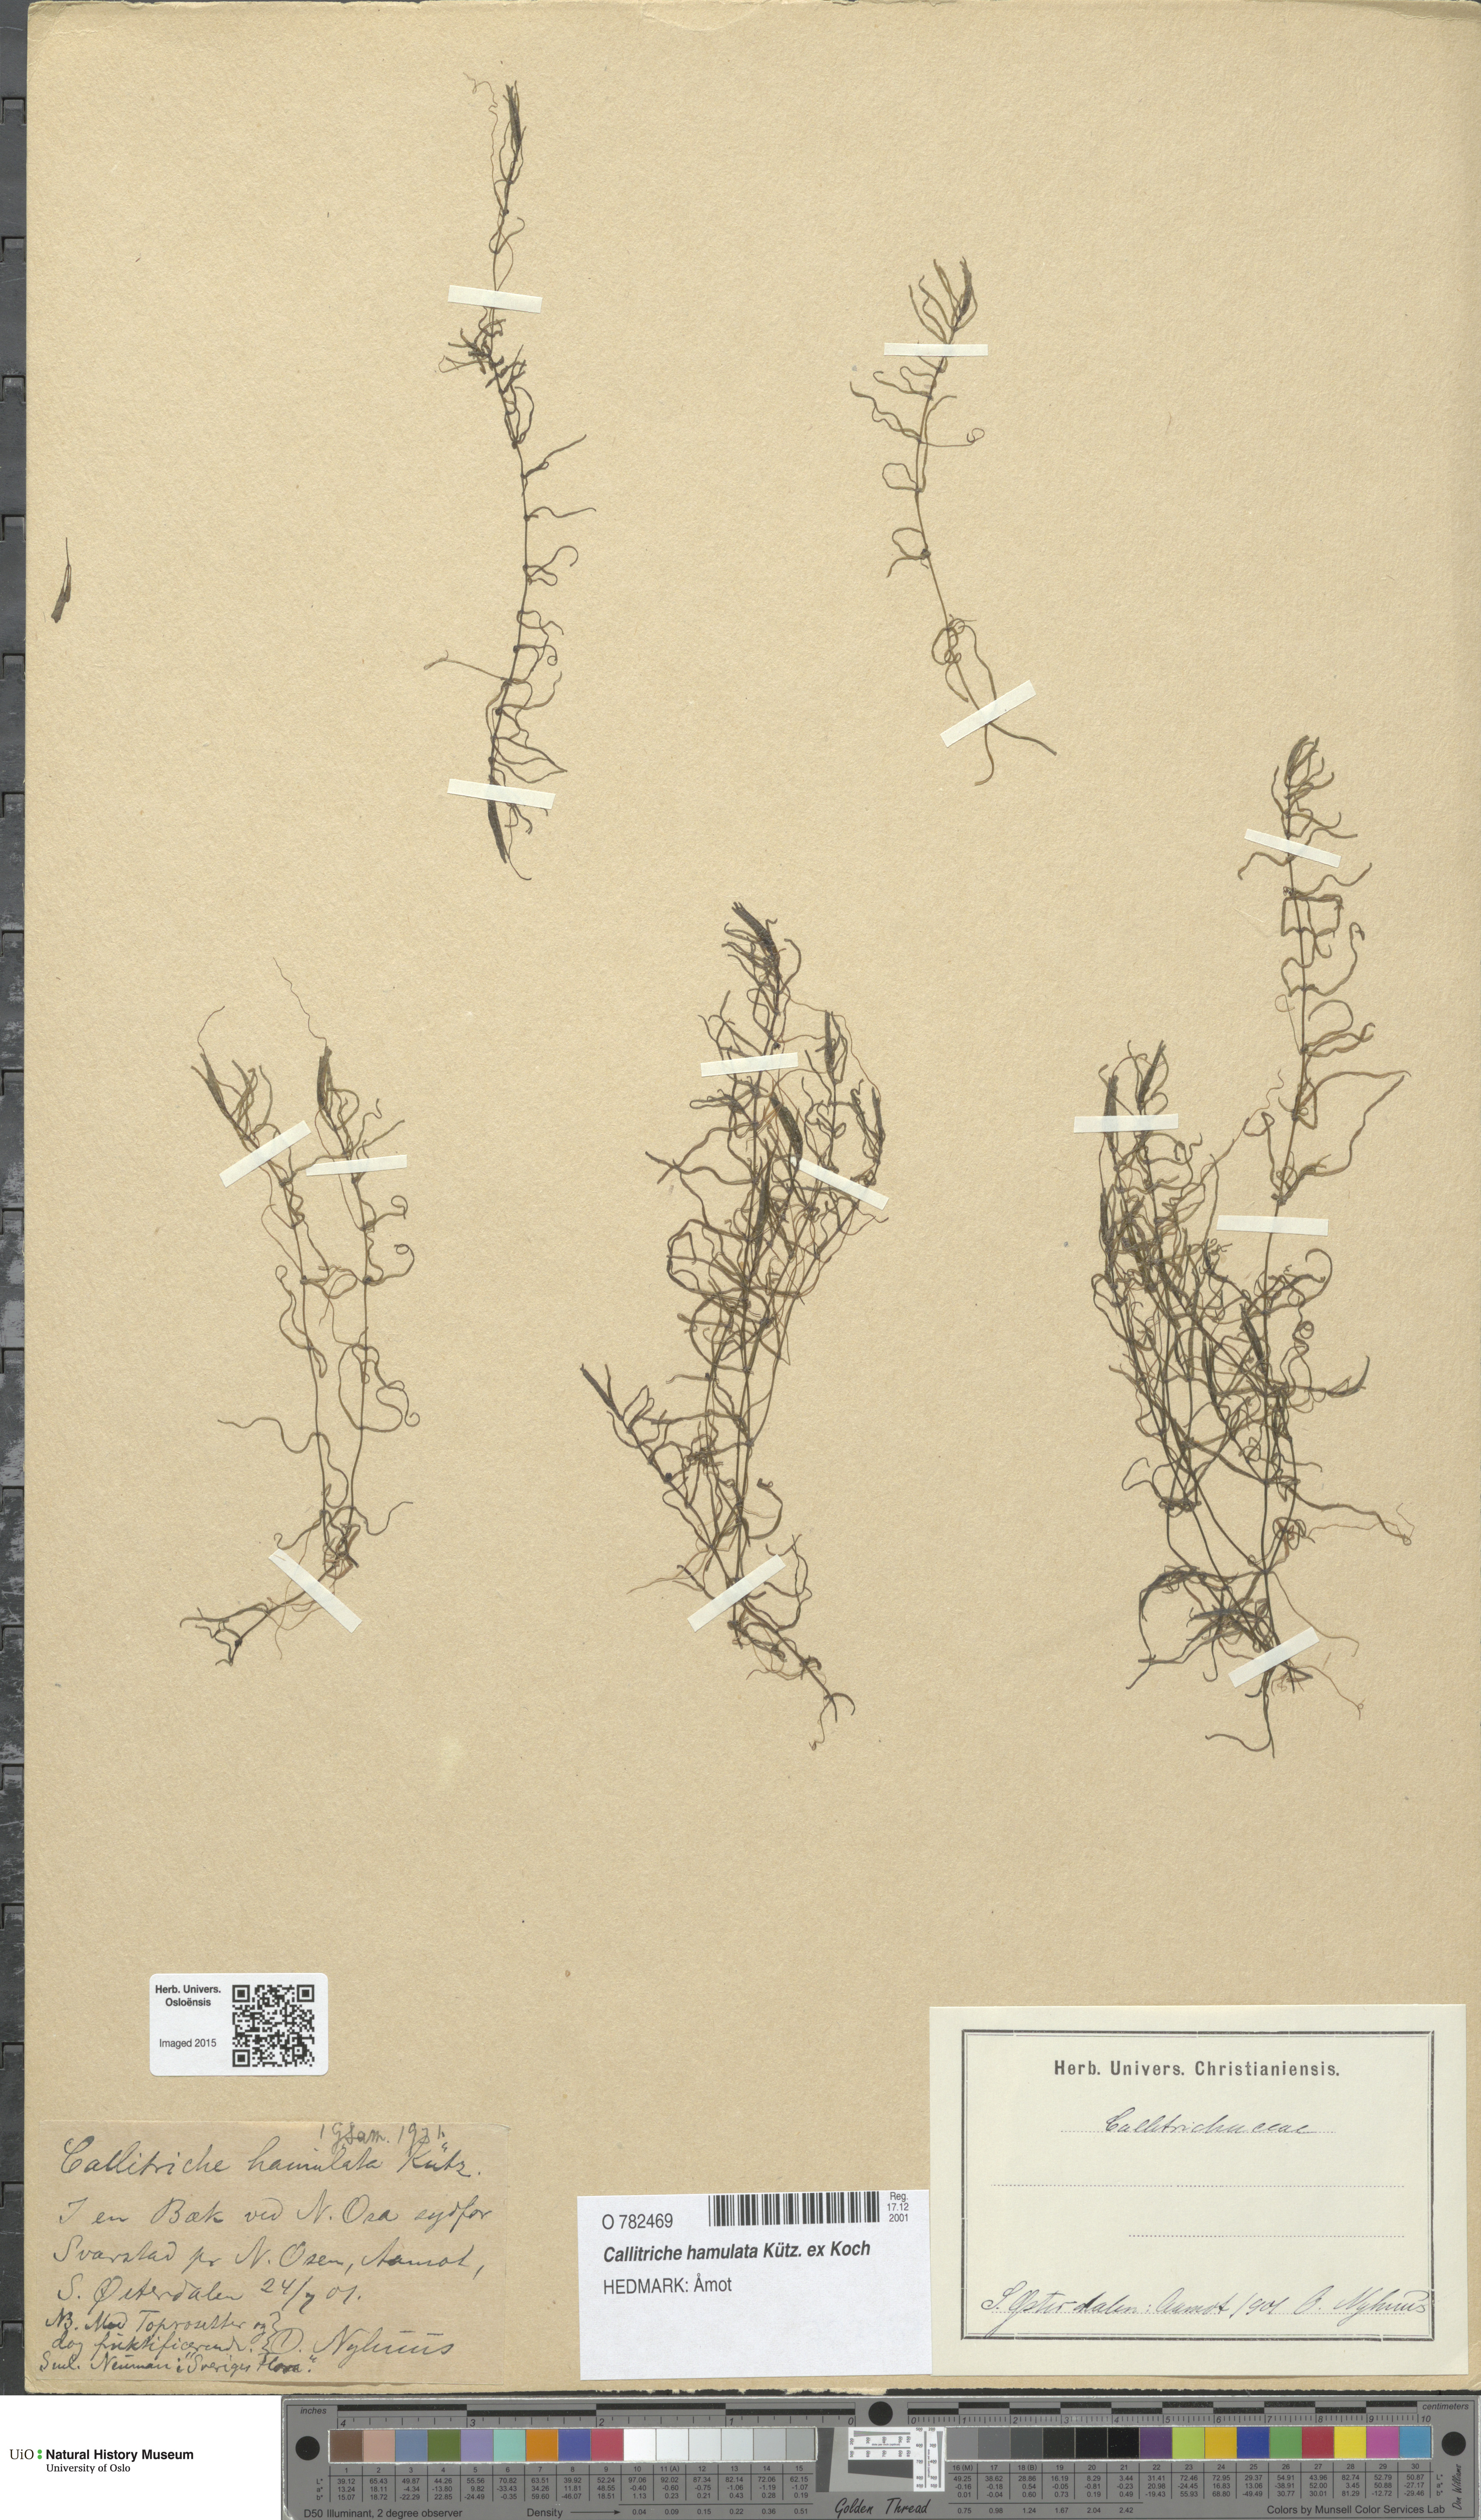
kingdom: Plantae
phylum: Tracheophyta
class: Magnoliopsida
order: Lamiales
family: Plantaginaceae
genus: Callitriche
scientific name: Callitriche hamulata
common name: Intermediate water-starwort
